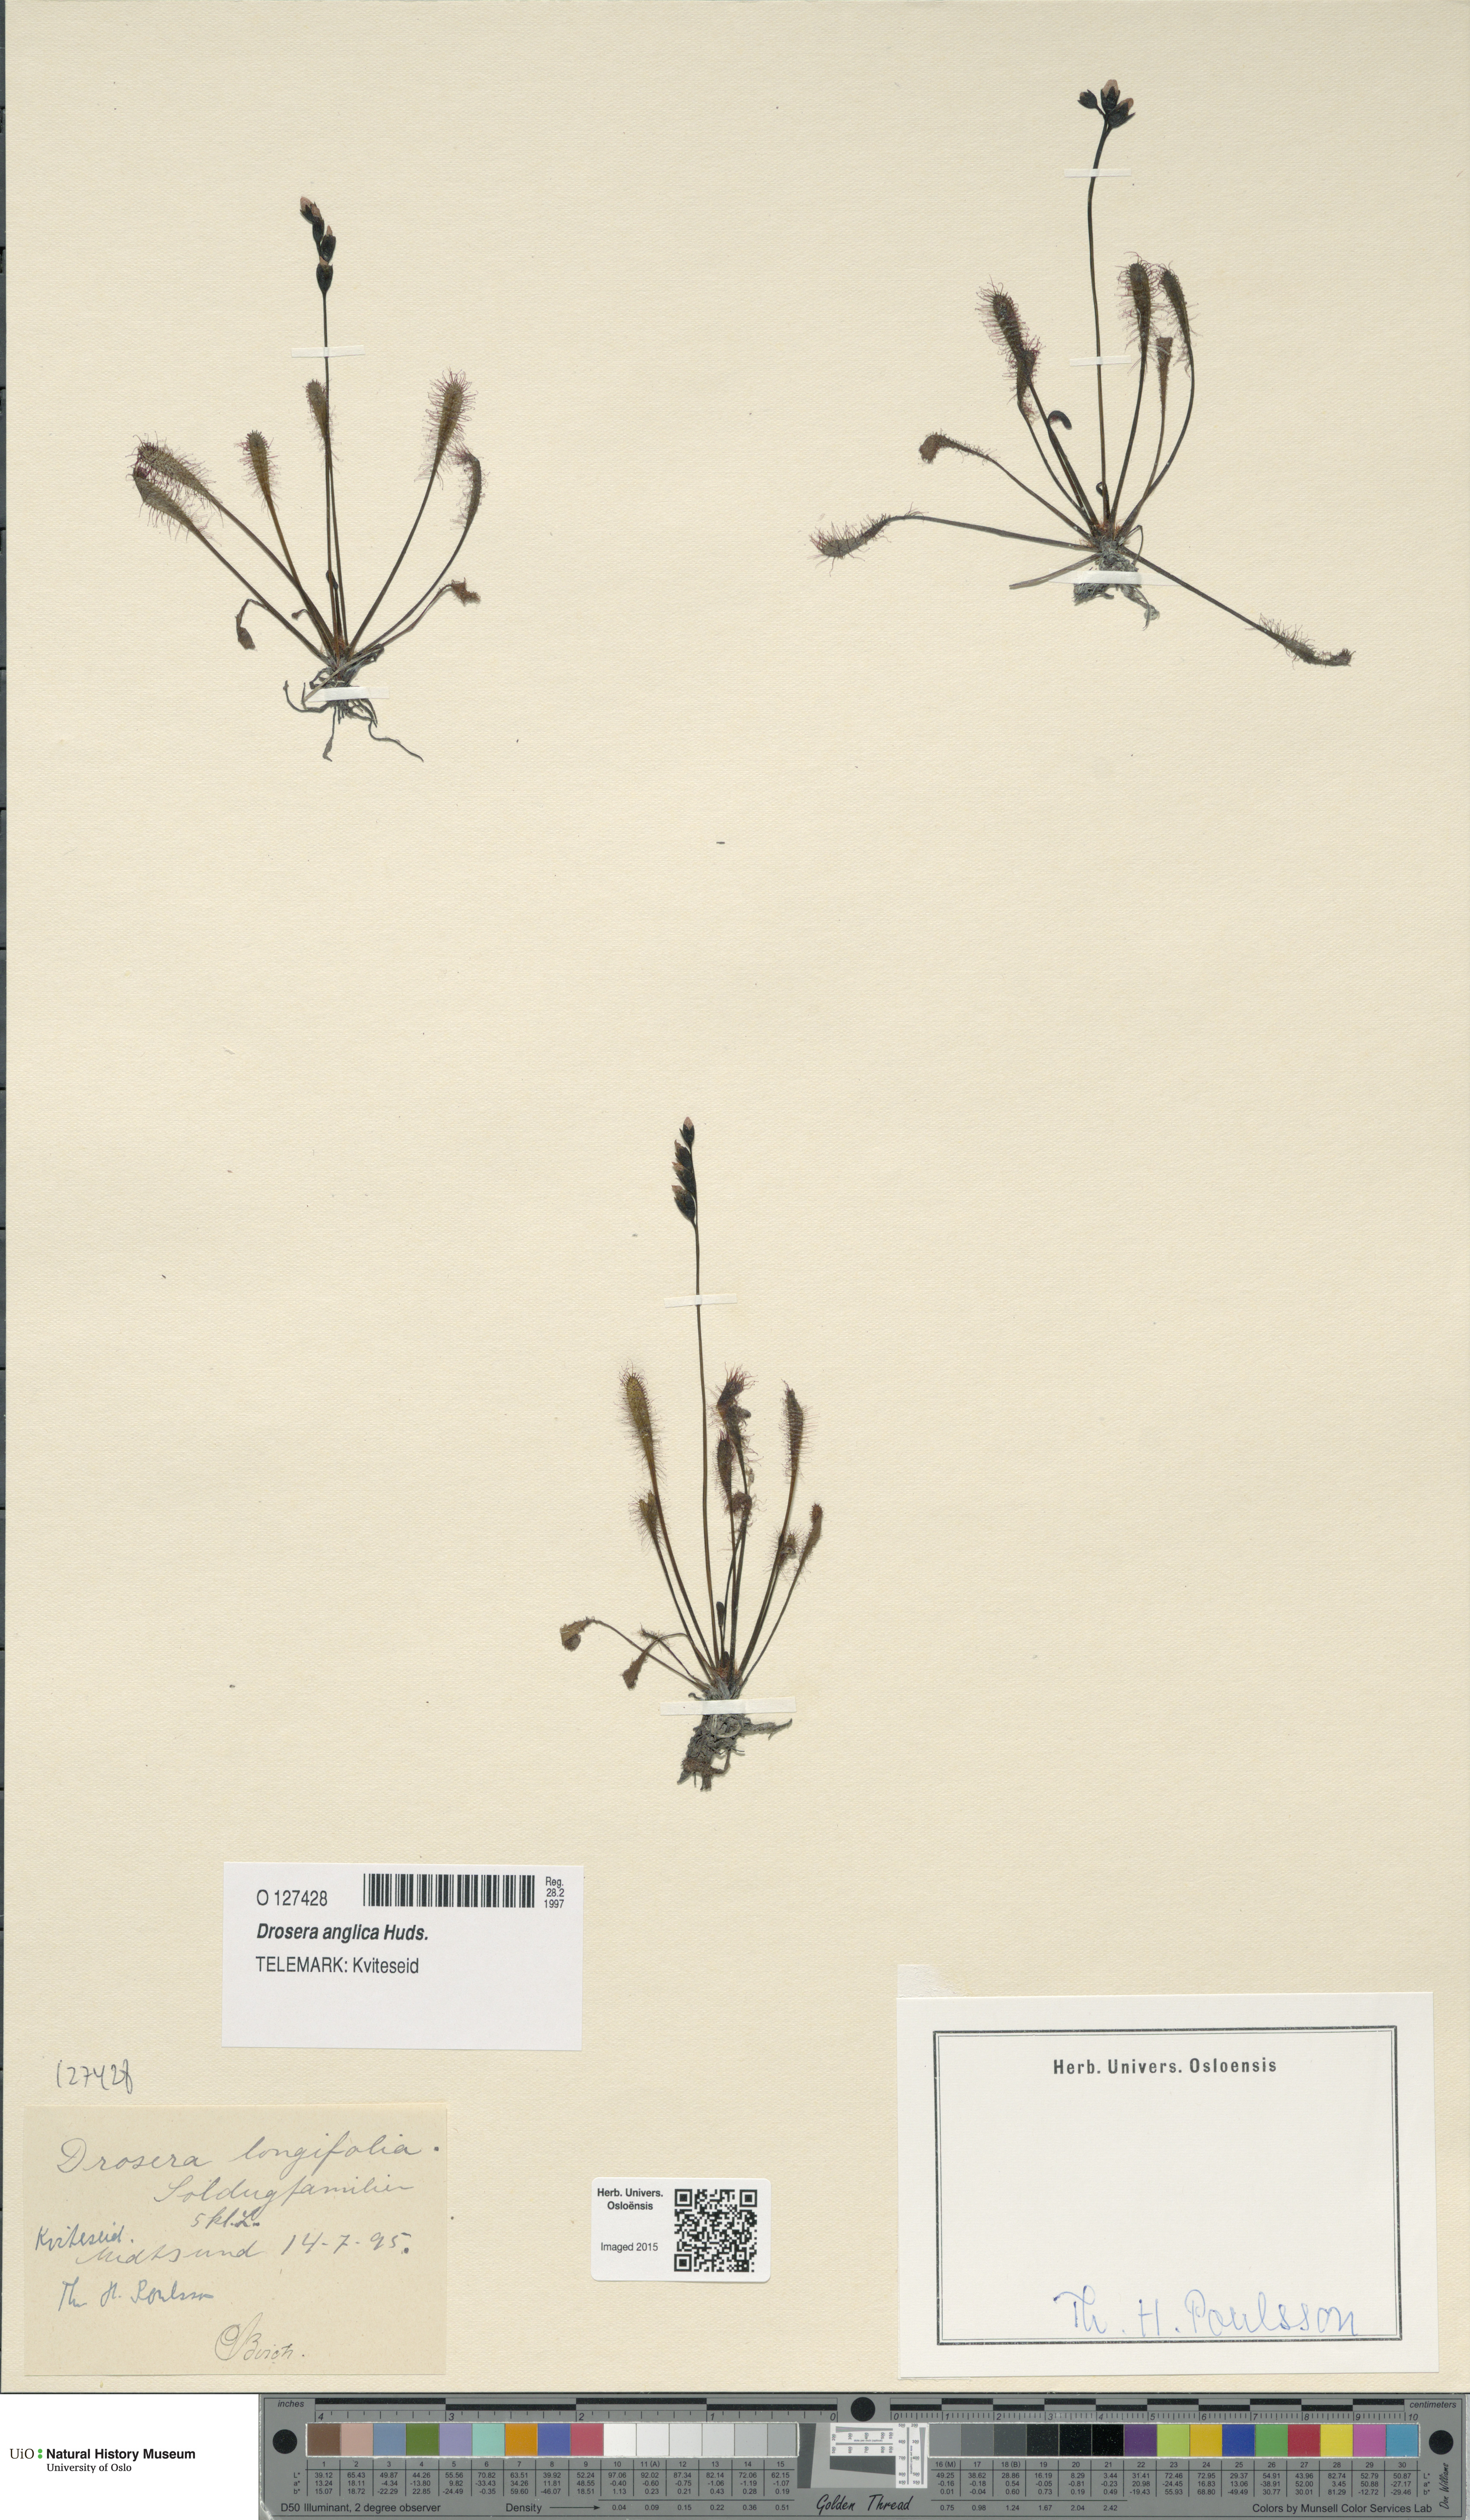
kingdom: Plantae
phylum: Tracheophyta
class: Magnoliopsida
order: Caryophyllales
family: Droseraceae
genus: Drosera
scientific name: Drosera anglica
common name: Great sundew
